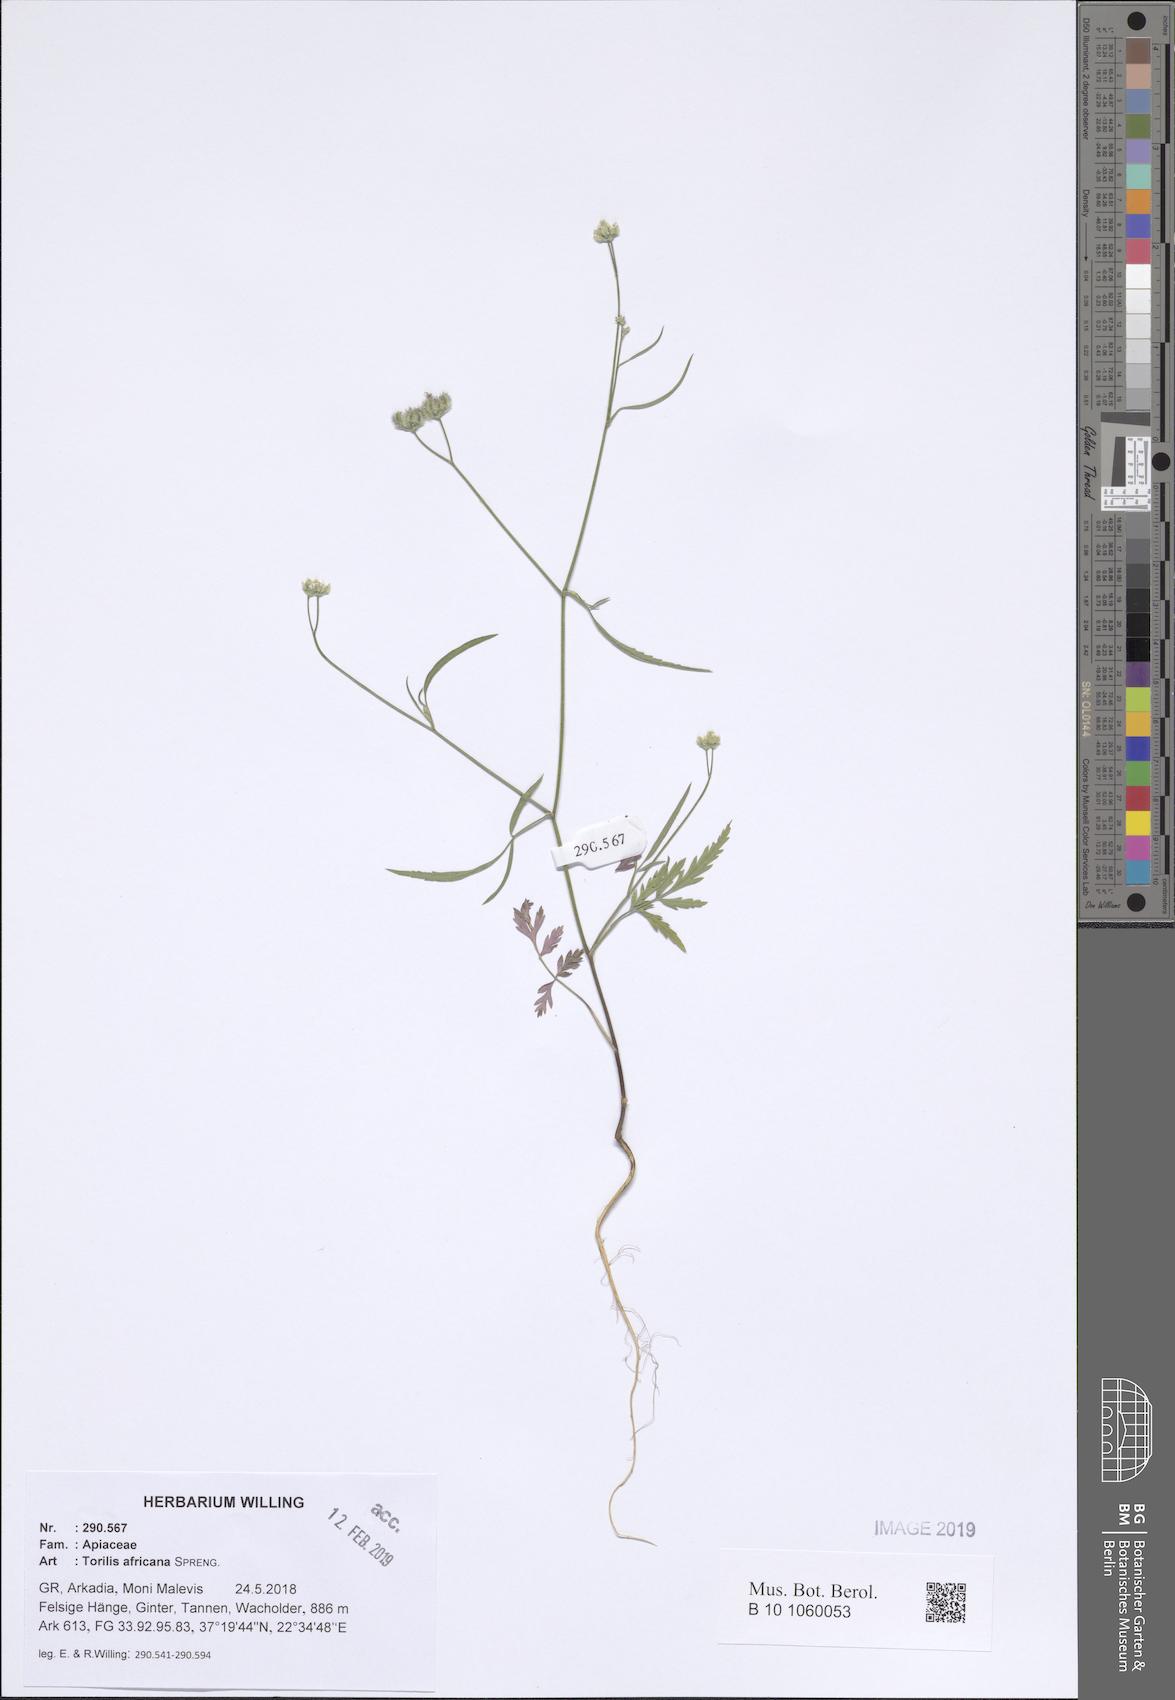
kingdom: Plantae
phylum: Tracheophyta
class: Magnoliopsida
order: Apiales
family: Apiaceae
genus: Torilis
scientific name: Torilis africana
